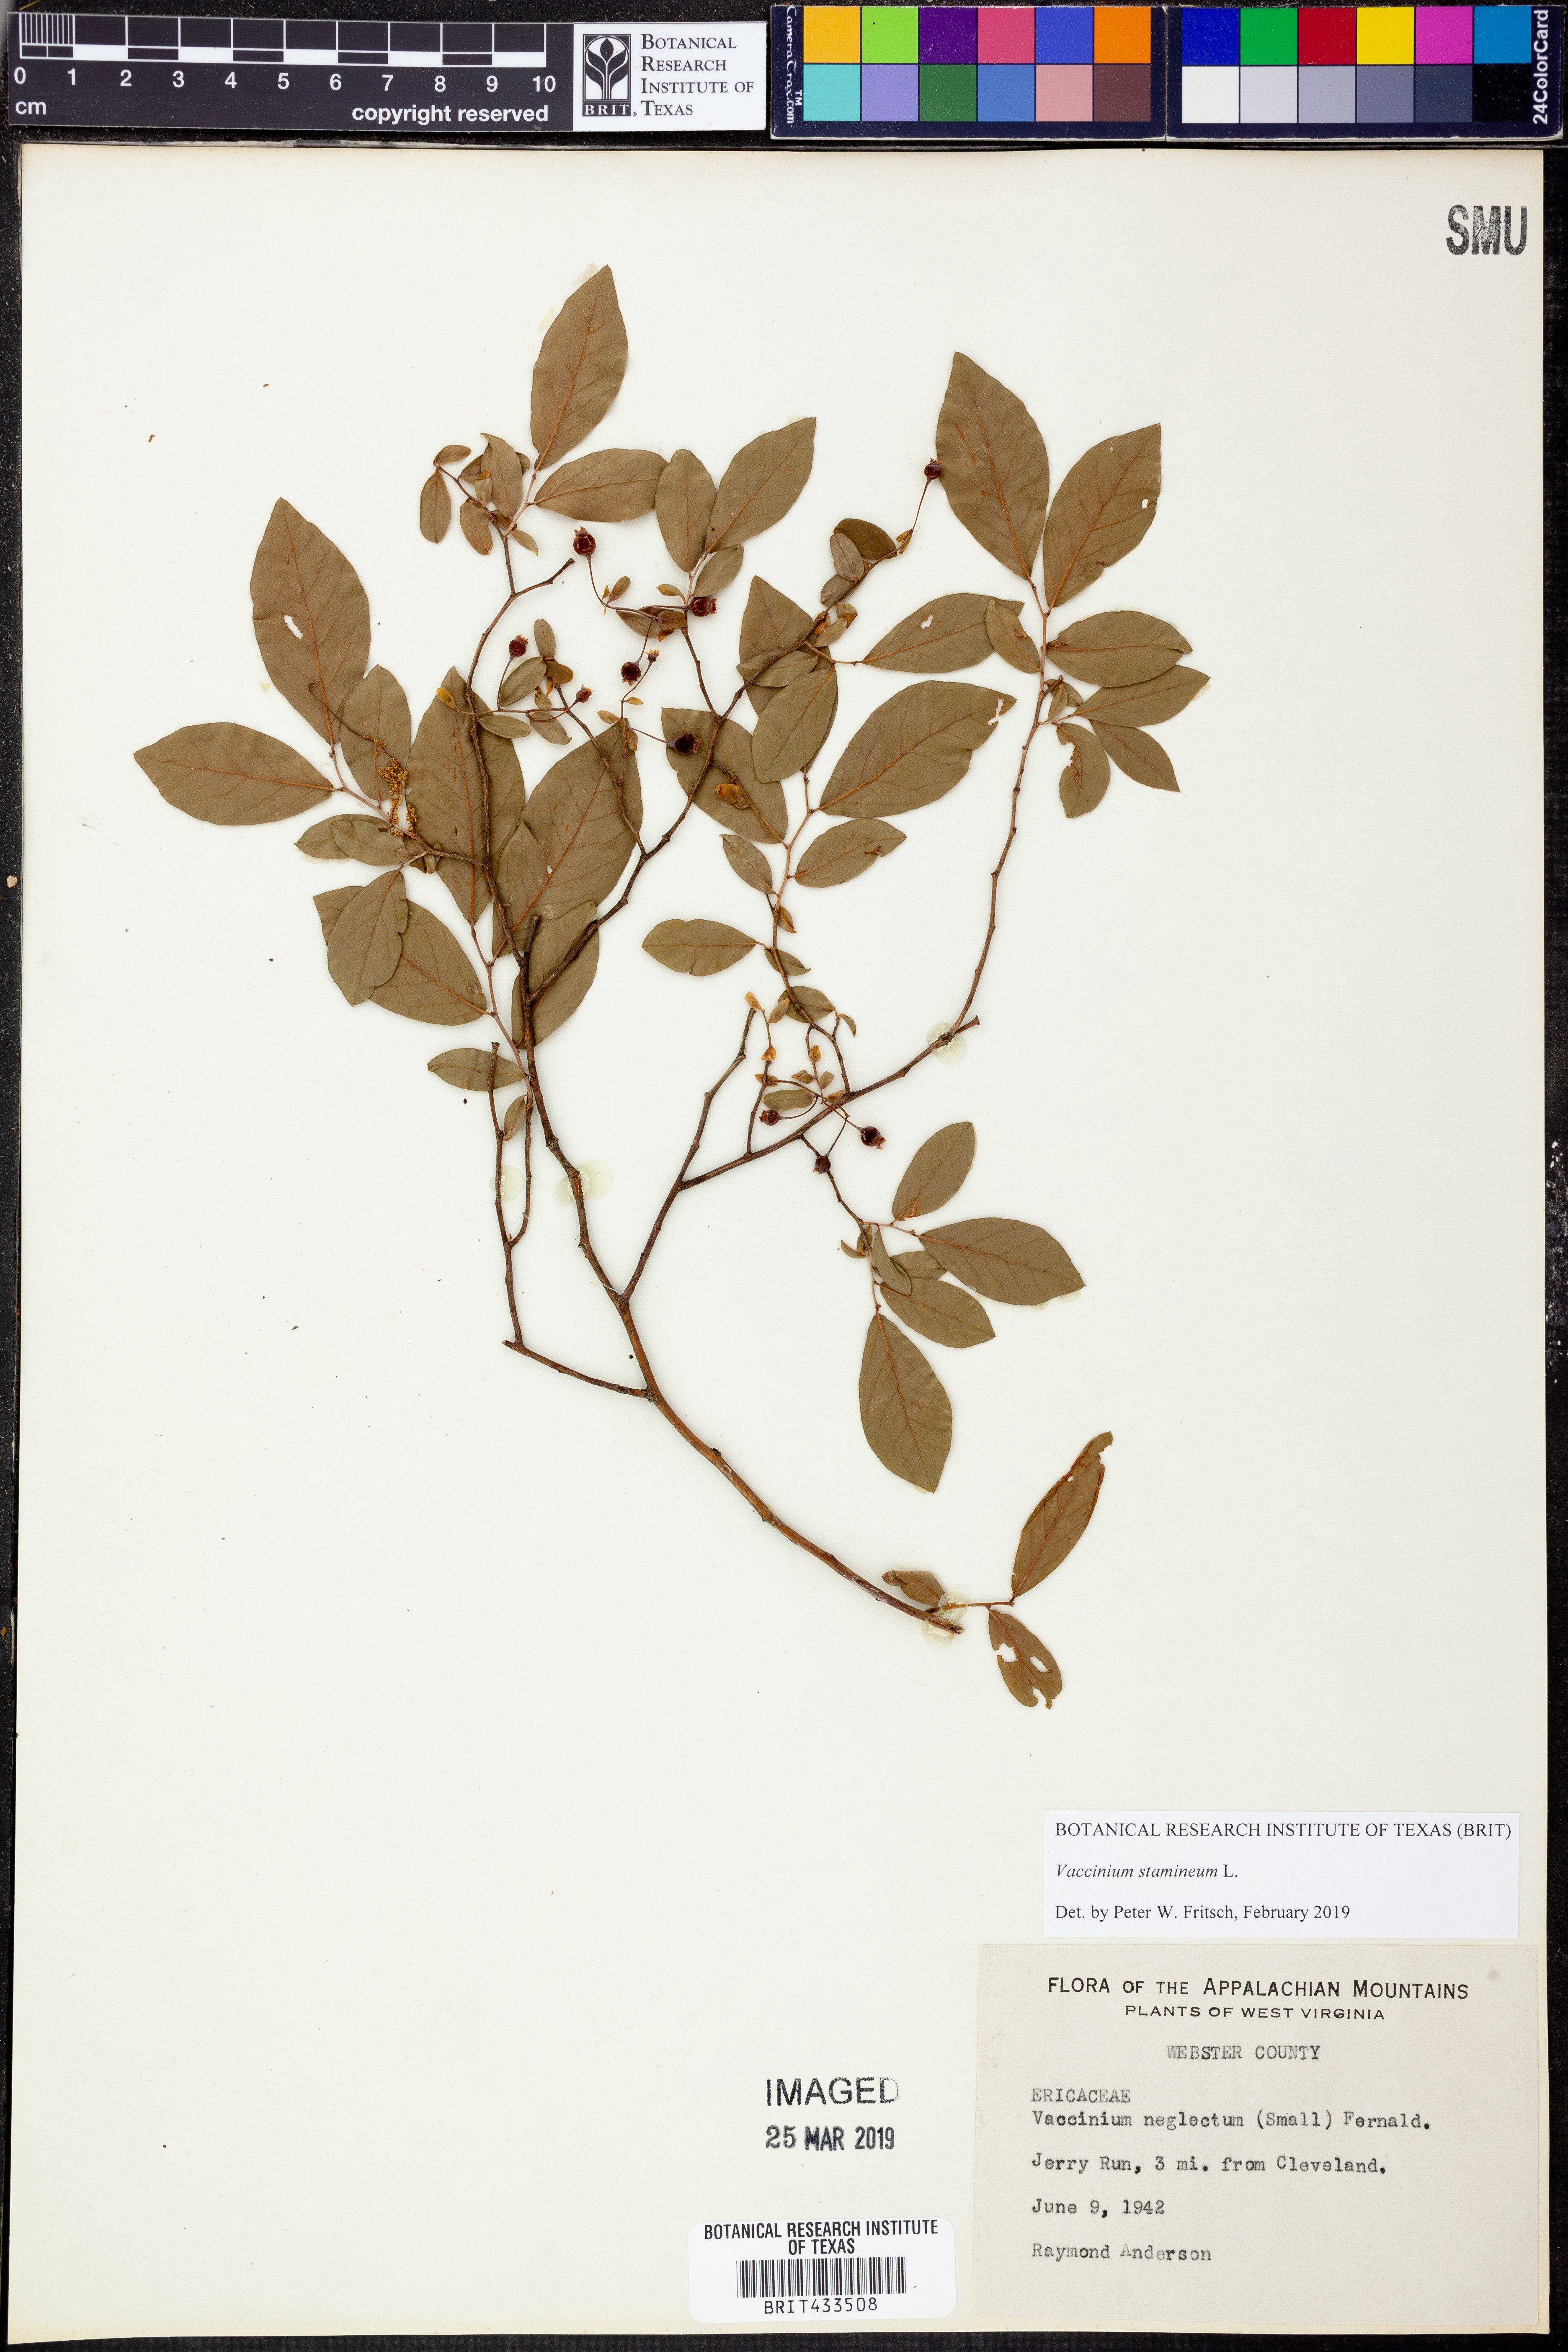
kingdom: Plantae
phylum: Tracheophyta
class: Magnoliopsida
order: Ericales
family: Ericaceae
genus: Vaccinium
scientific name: Vaccinium stamineum
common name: Deerberry
